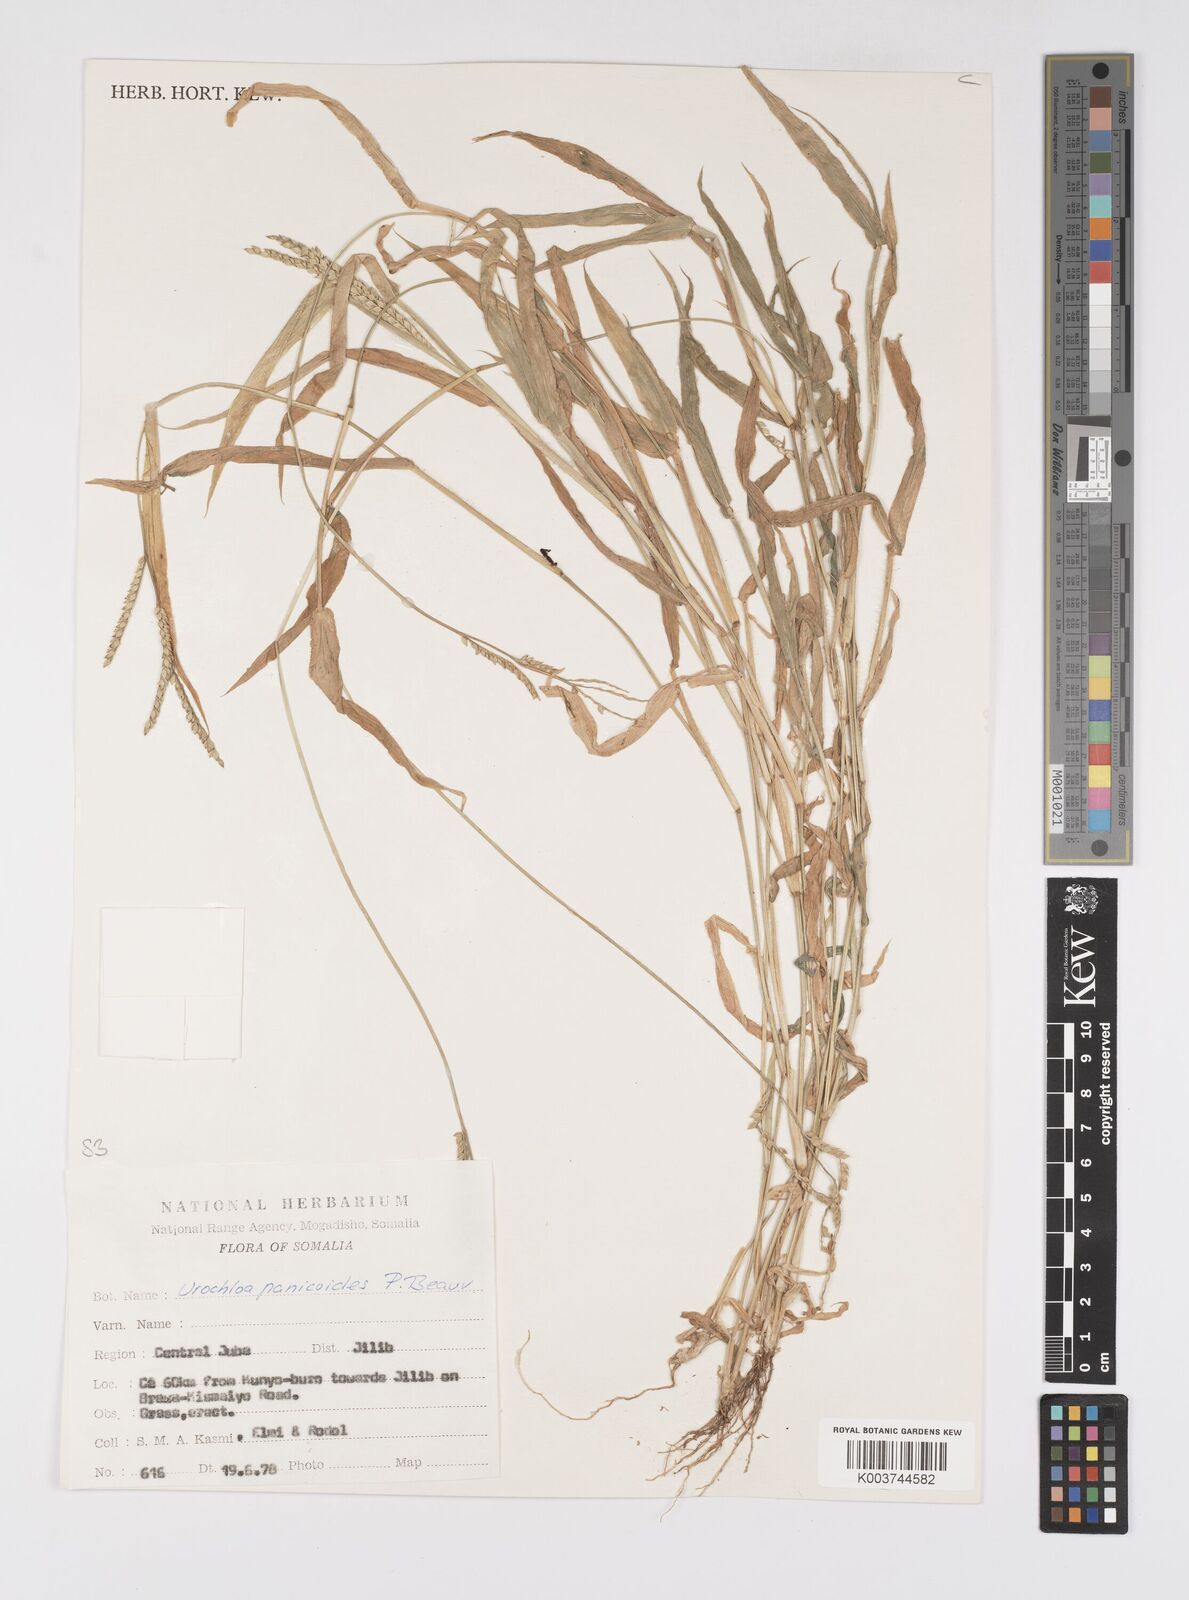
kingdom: Plantae
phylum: Tracheophyta
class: Liliopsida
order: Poales
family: Poaceae
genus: Urochloa
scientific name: Urochloa panicoides
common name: Sharp-flowered signal-grass
